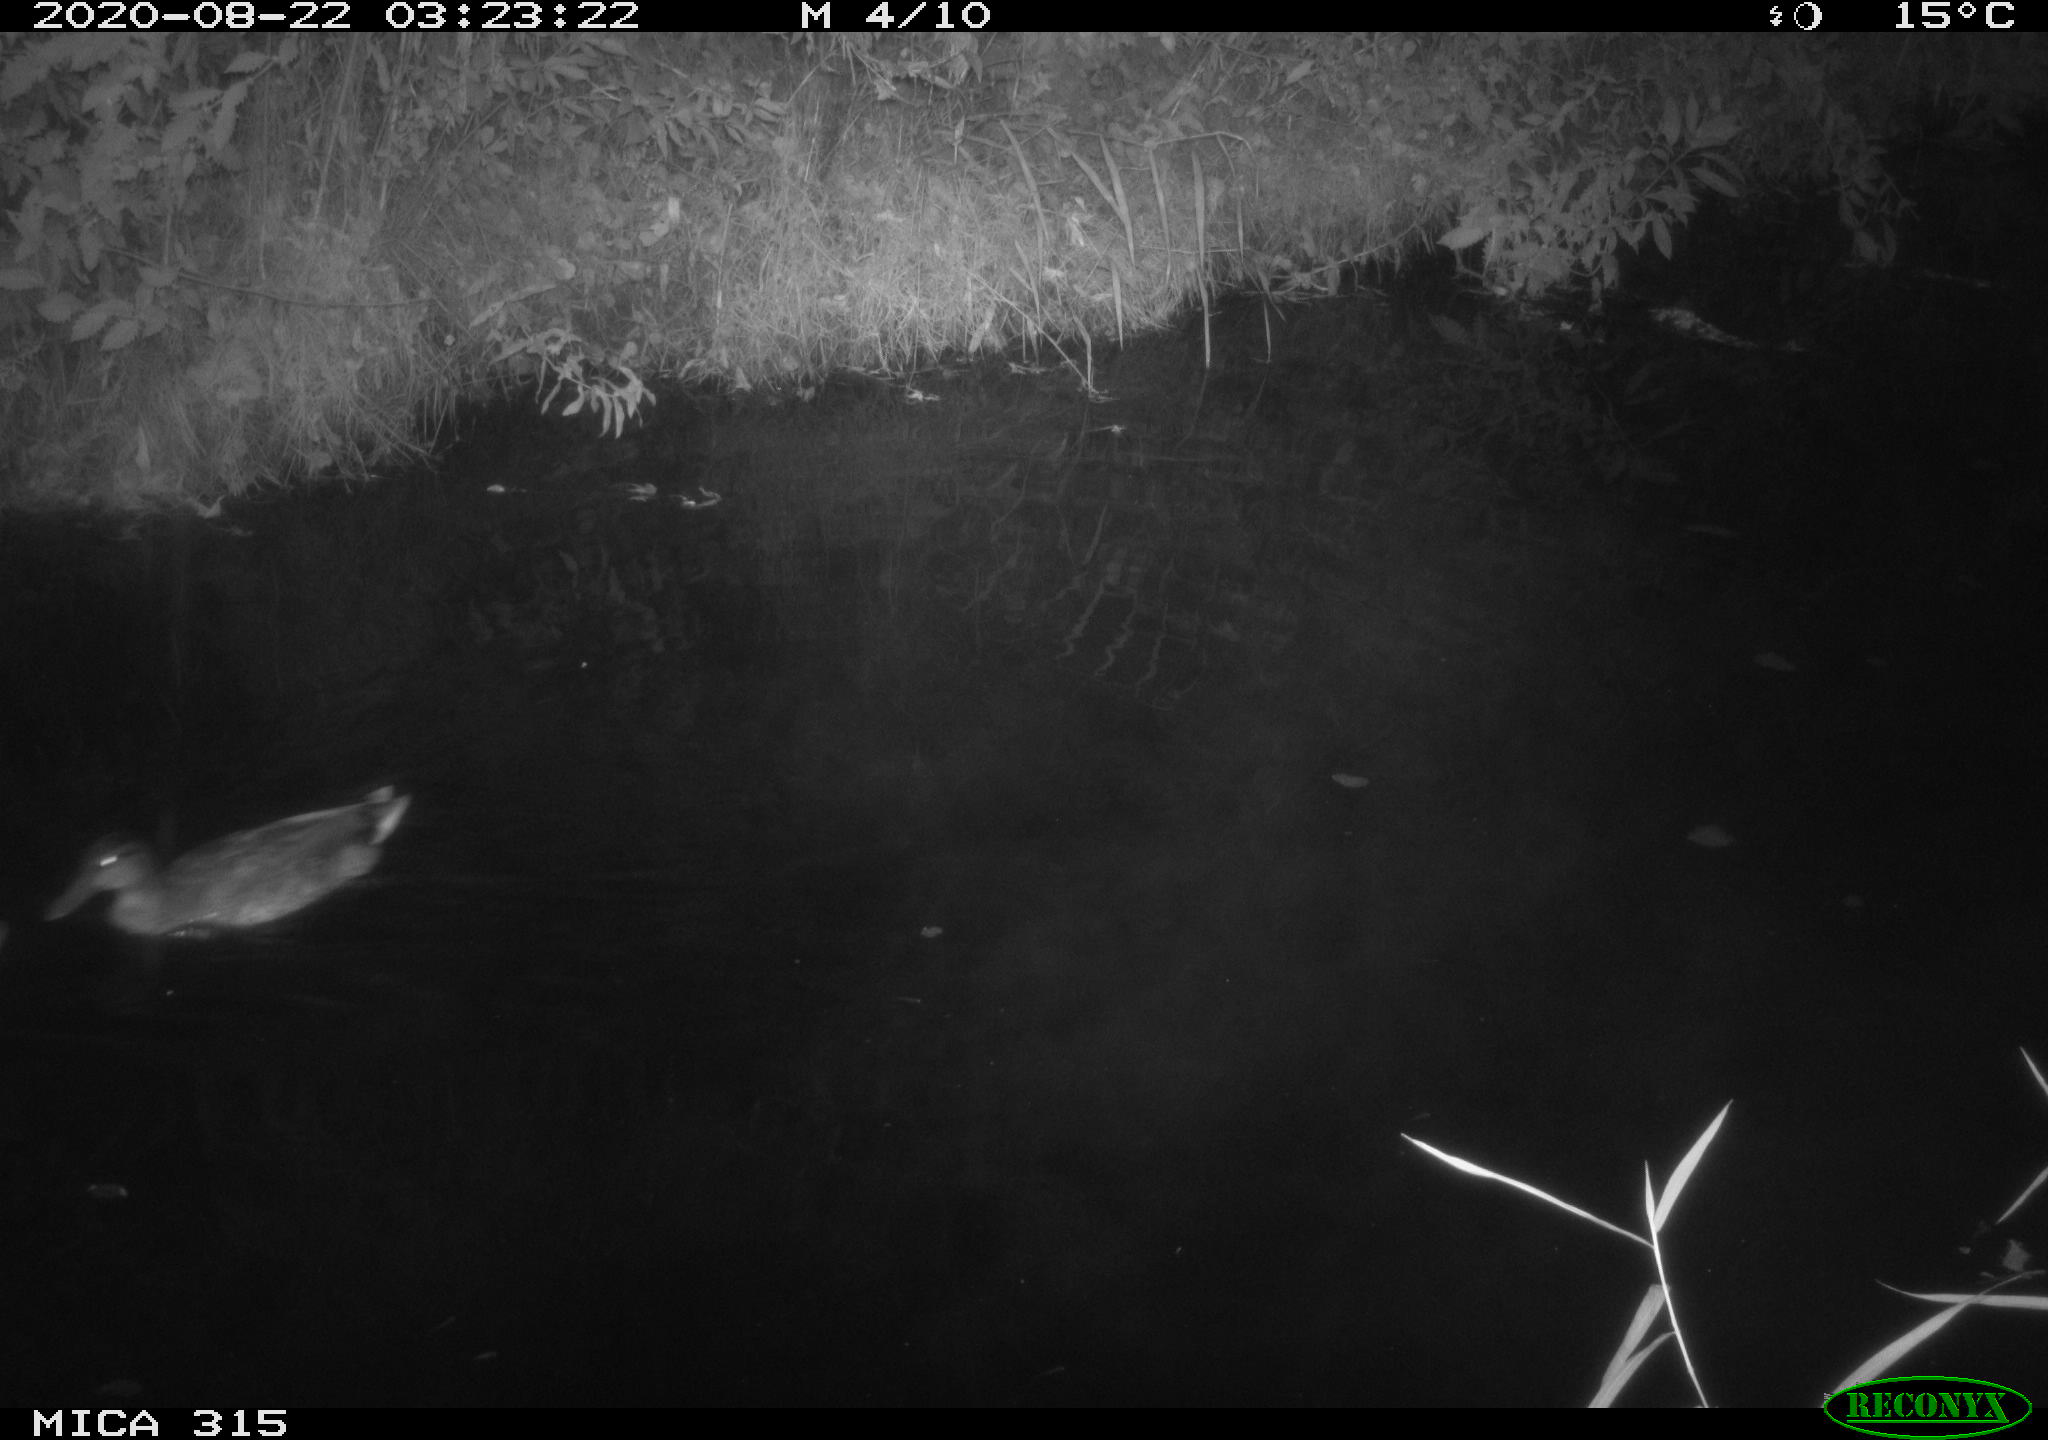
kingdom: Animalia
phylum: Chordata
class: Aves
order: Anseriformes
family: Anatidae
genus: Anas
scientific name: Anas platyrhynchos
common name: Mallard
